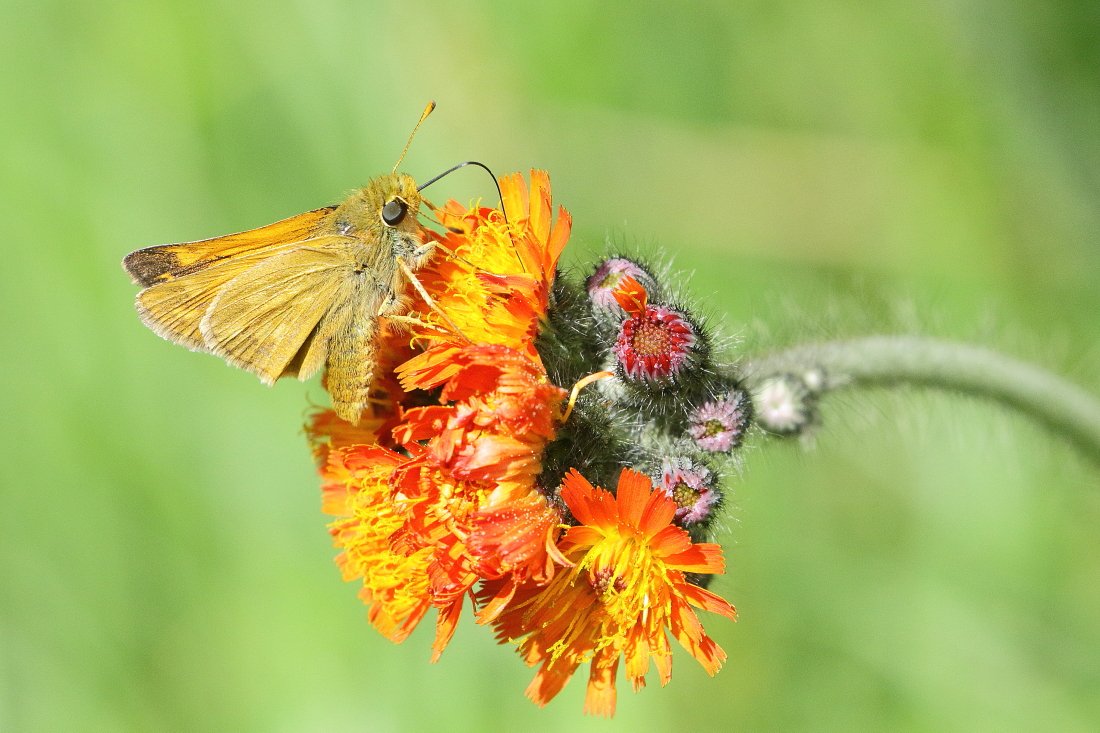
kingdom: Animalia
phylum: Arthropoda
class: Insecta
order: Lepidoptera
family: Hesperiidae
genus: Hesperia
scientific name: Hesperia sassacus
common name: Sassacus Skipper
